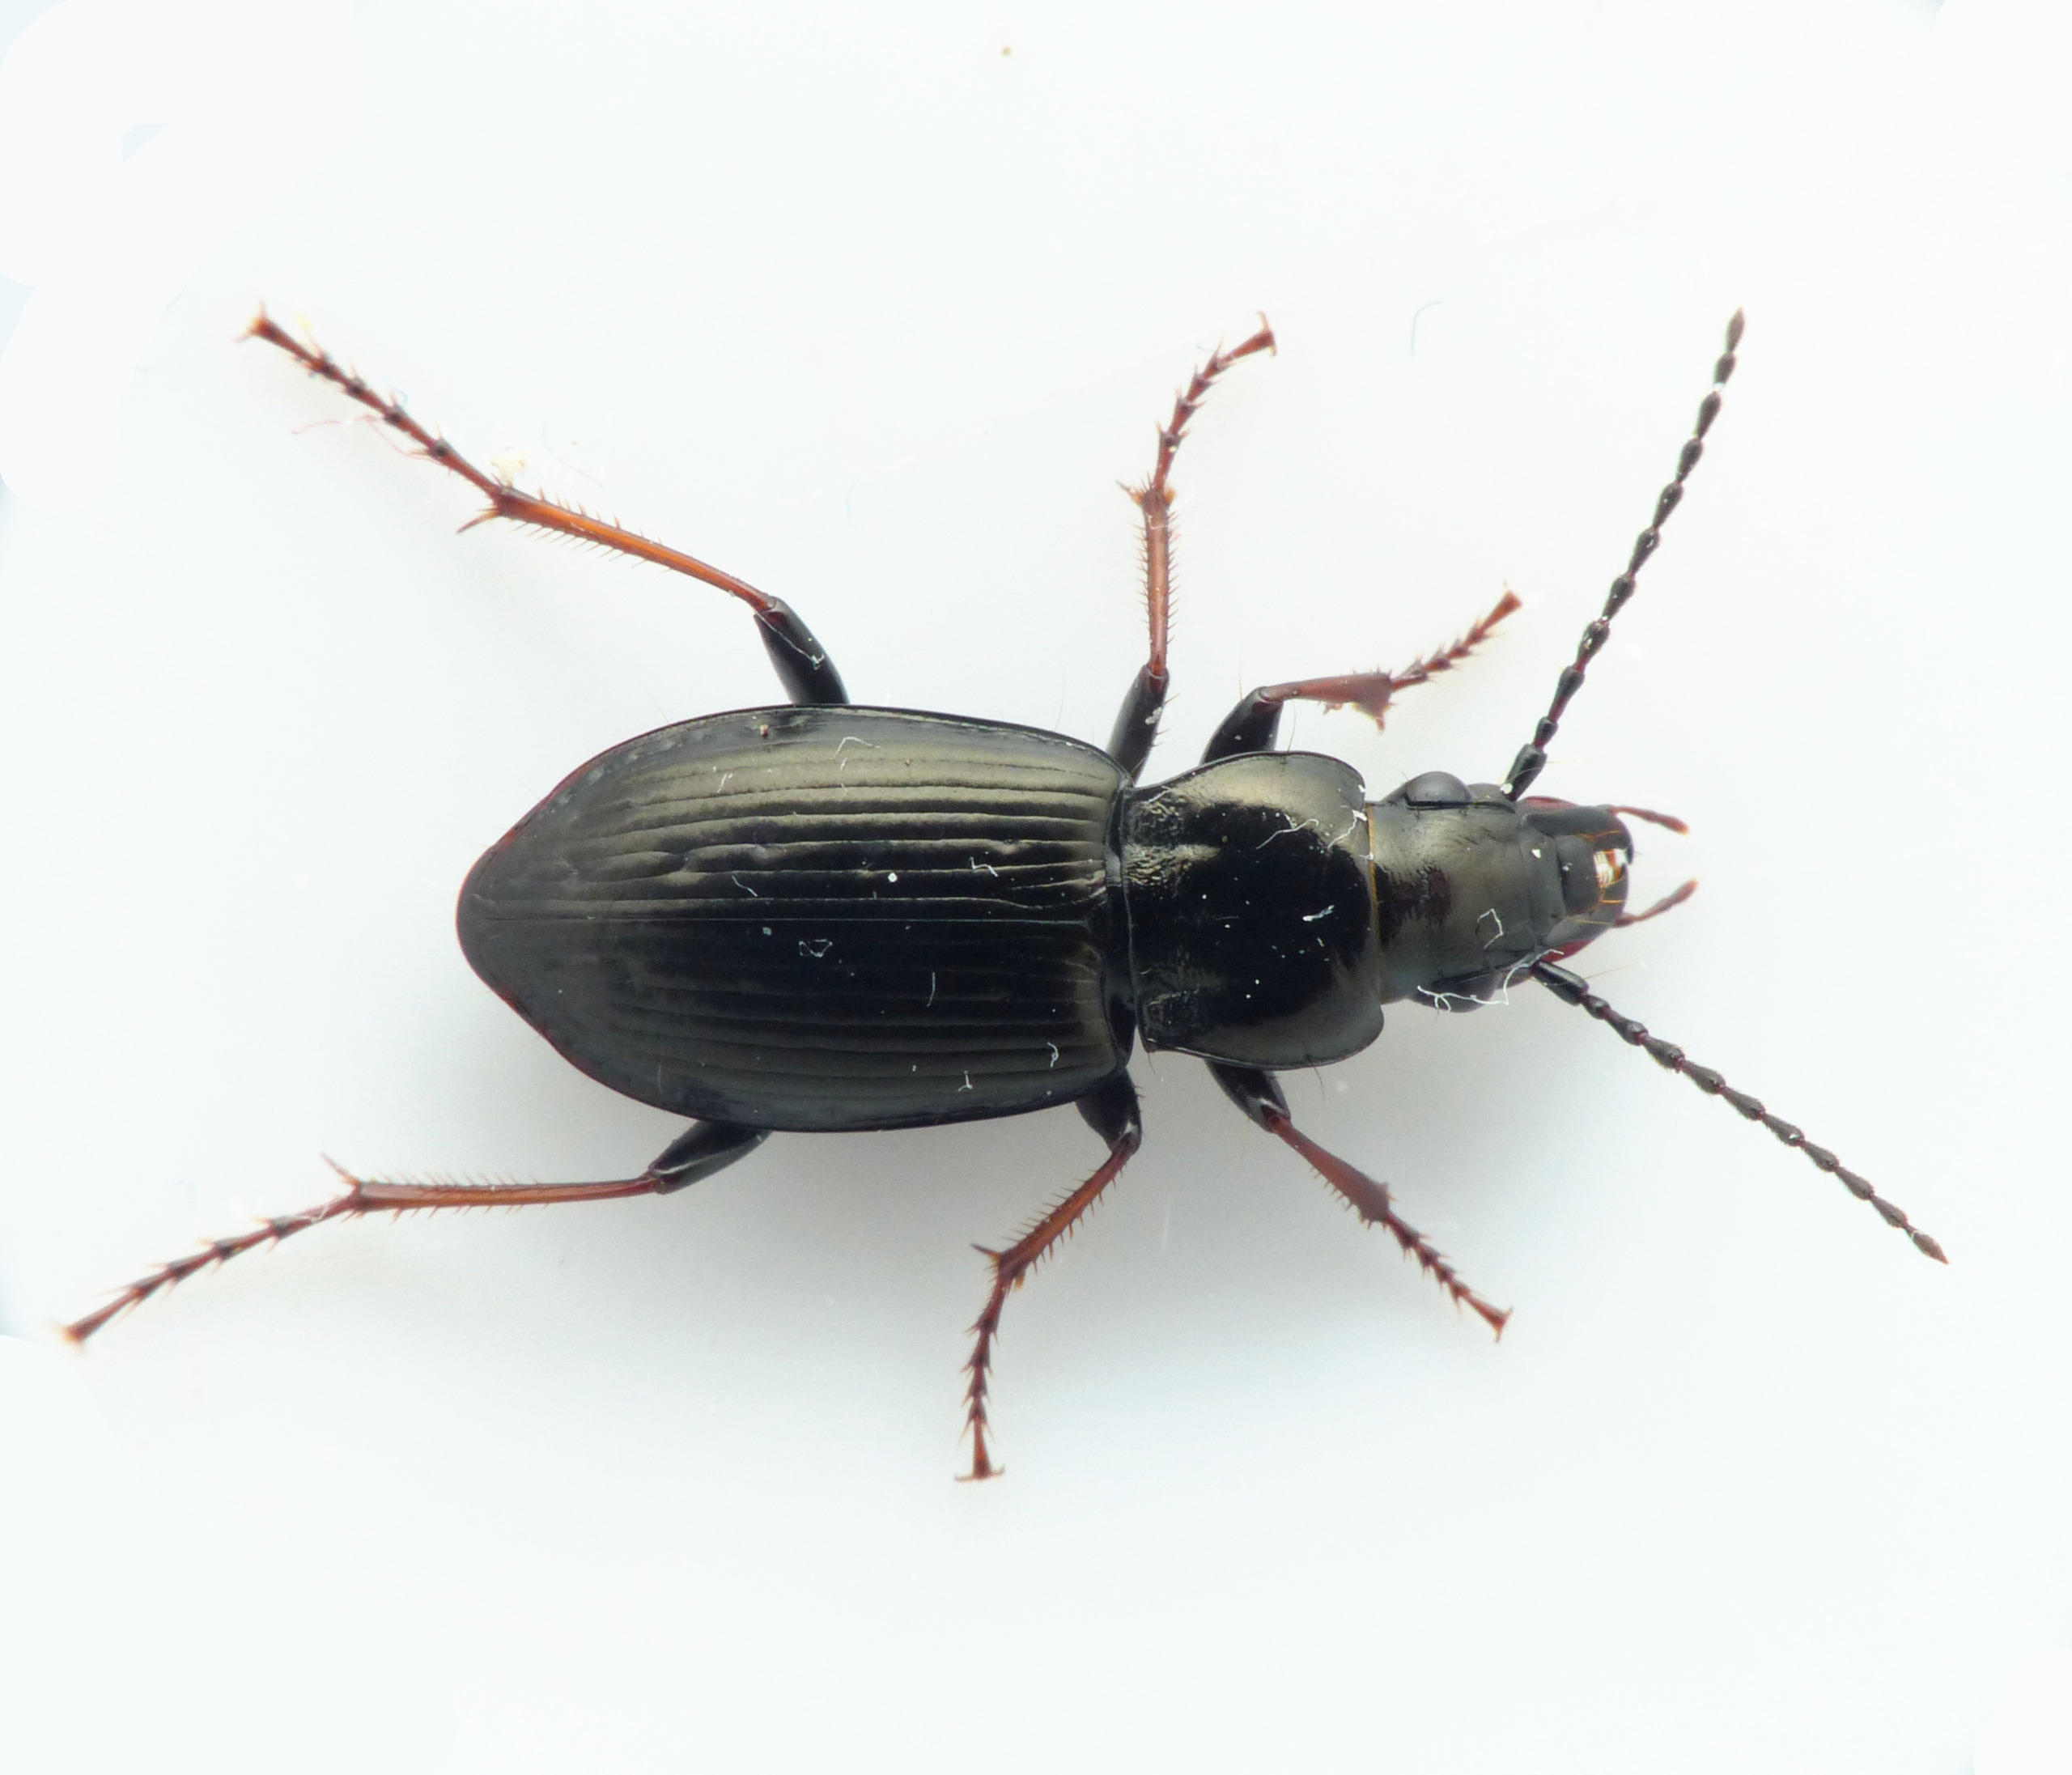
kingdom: Animalia
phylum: Arthropoda
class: Insecta
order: Coleoptera
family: Carabidae
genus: Pterostichus
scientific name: Pterostichus oblongopunctatus
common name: Bronzejordløber
